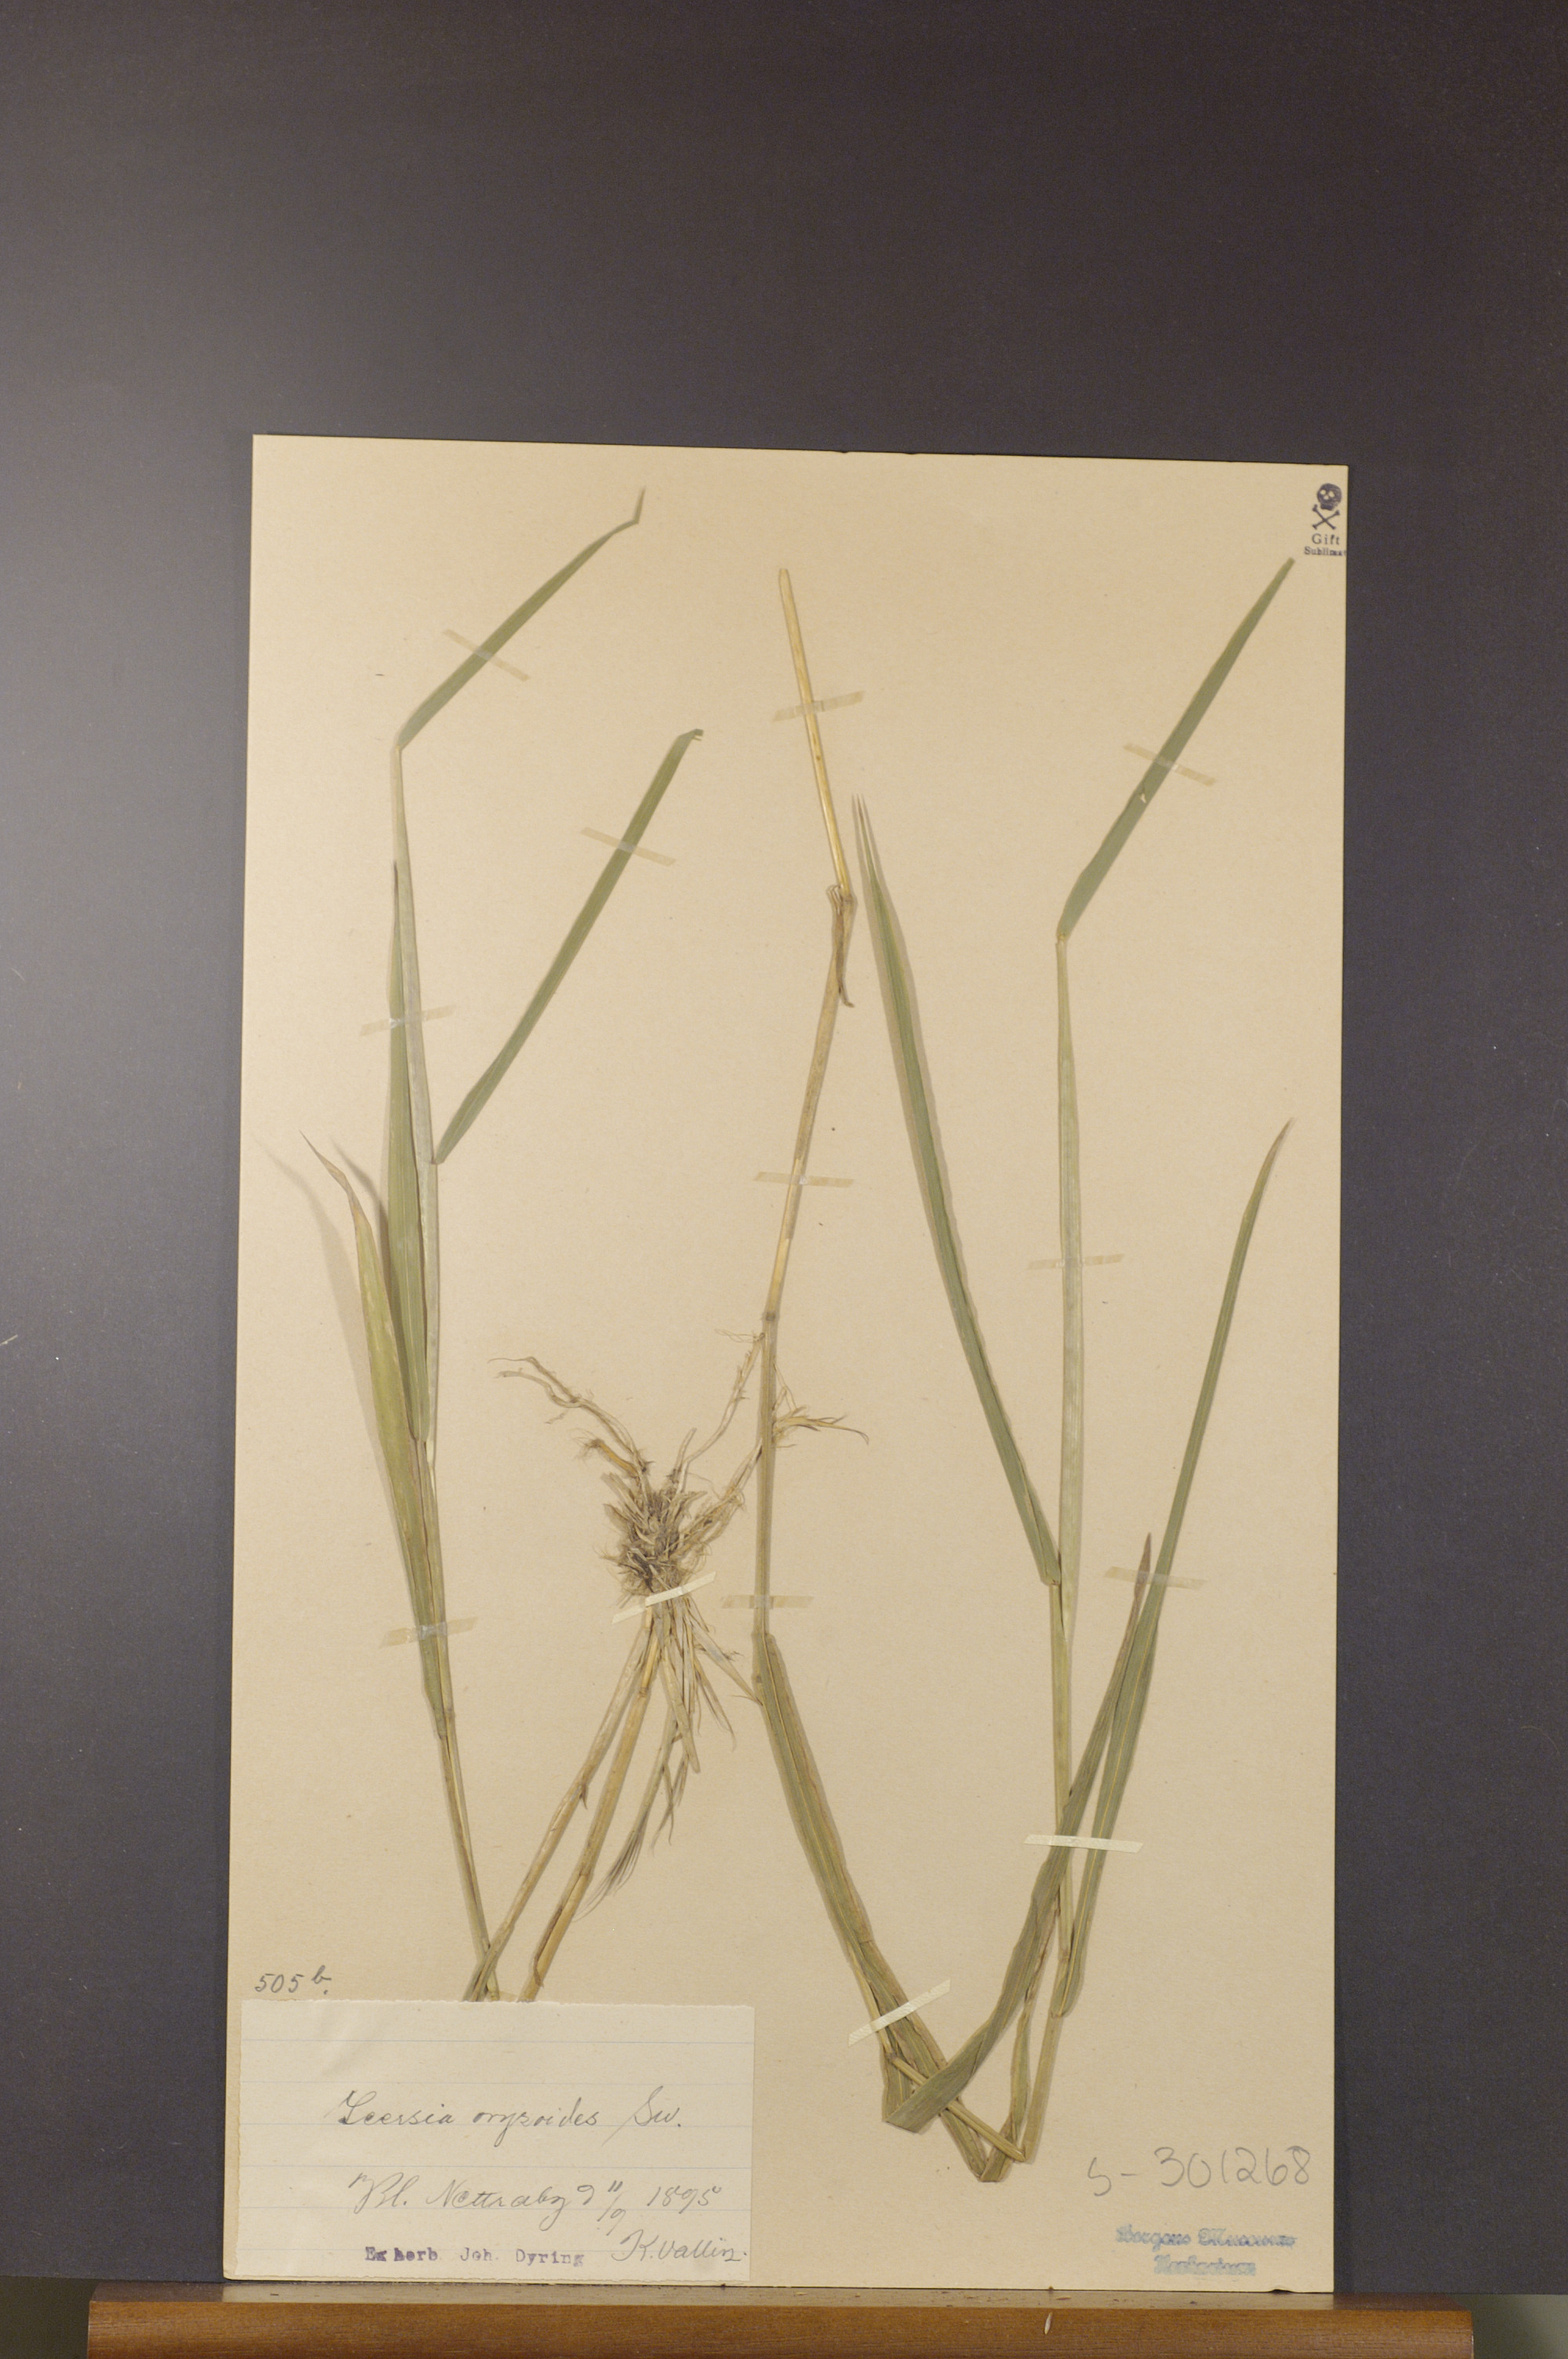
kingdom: Plantae
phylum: Tracheophyta
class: Liliopsida
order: Poales
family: Poaceae
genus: Leersia
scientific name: Leersia oryzoides
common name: Cut-grass
